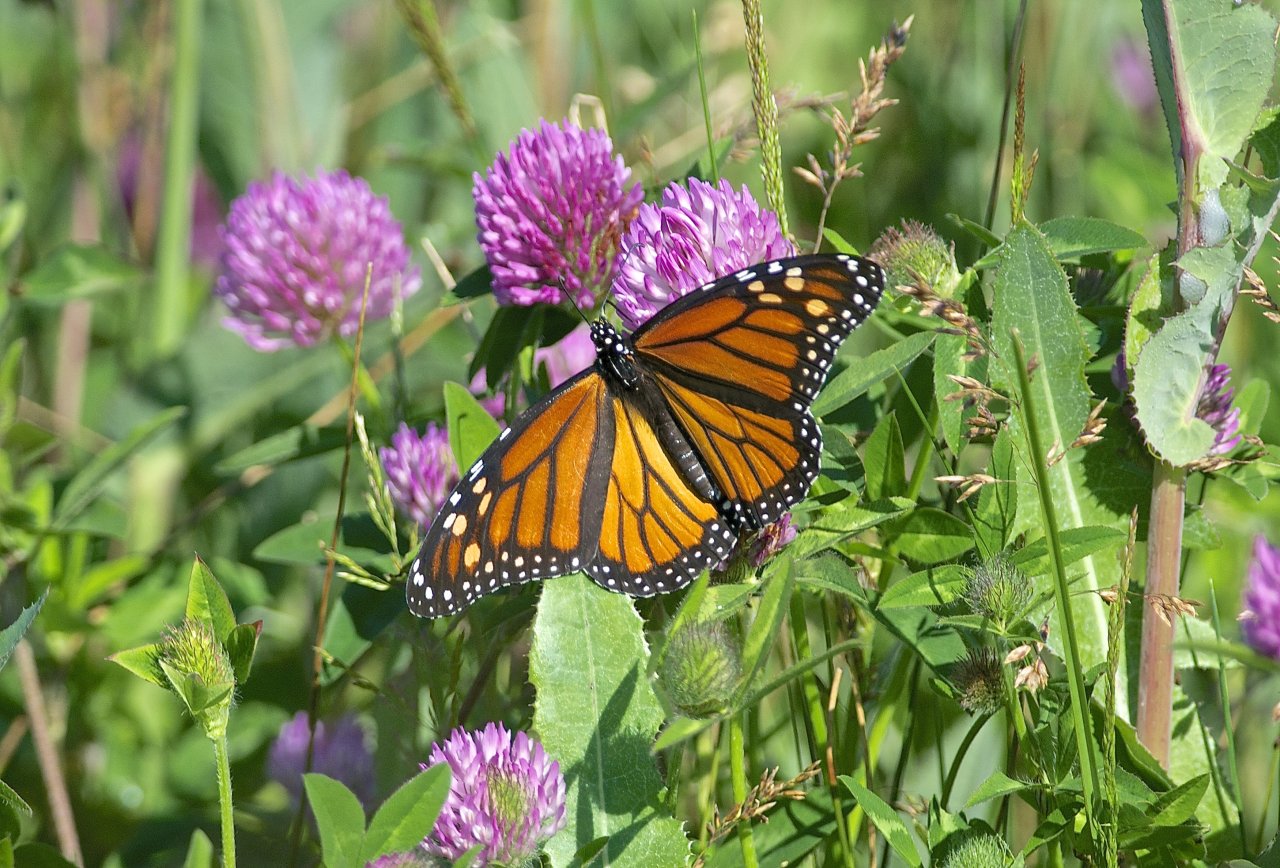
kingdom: Animalia
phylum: Arthropoda
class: Insecta
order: Lepidoptera
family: Nymphalidae
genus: Danaus
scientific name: Danaus plexippus
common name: Monarch
